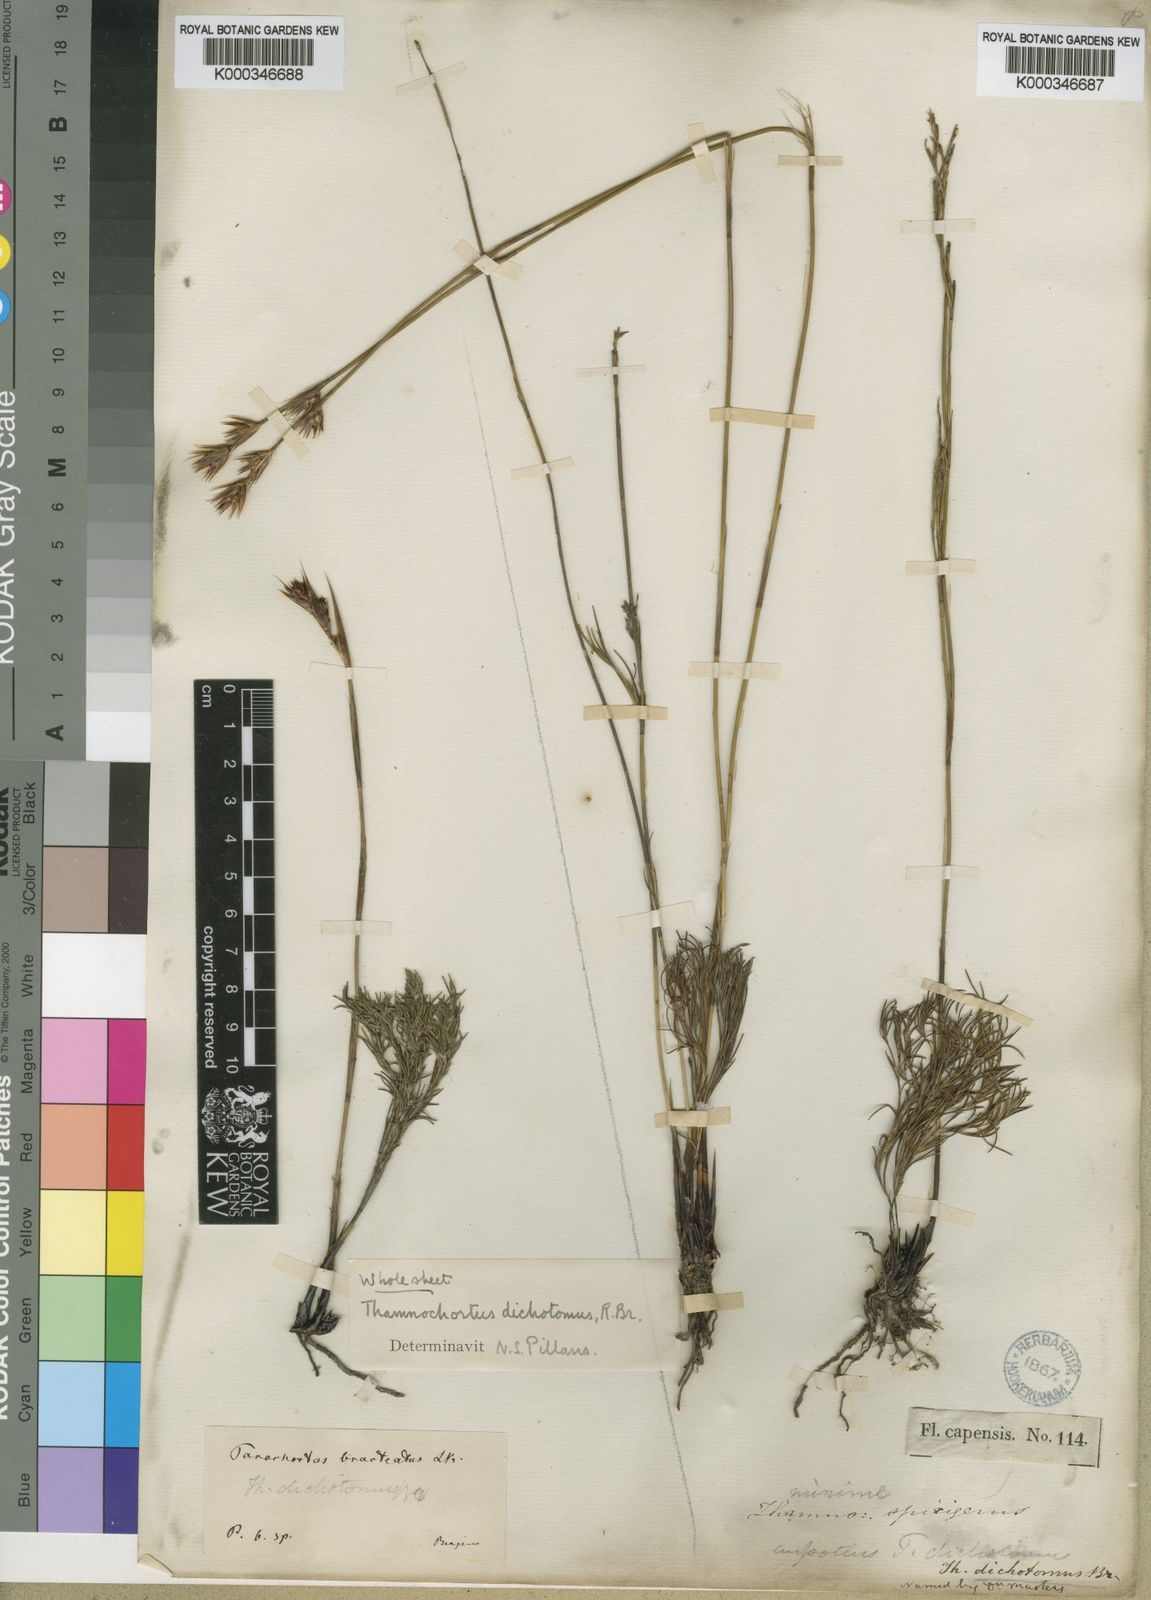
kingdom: Plantae
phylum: Tracheophyta
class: Liliopsida
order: Poales
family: Restionaceae
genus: Thamnochortus
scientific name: Thamnochortus lucens
